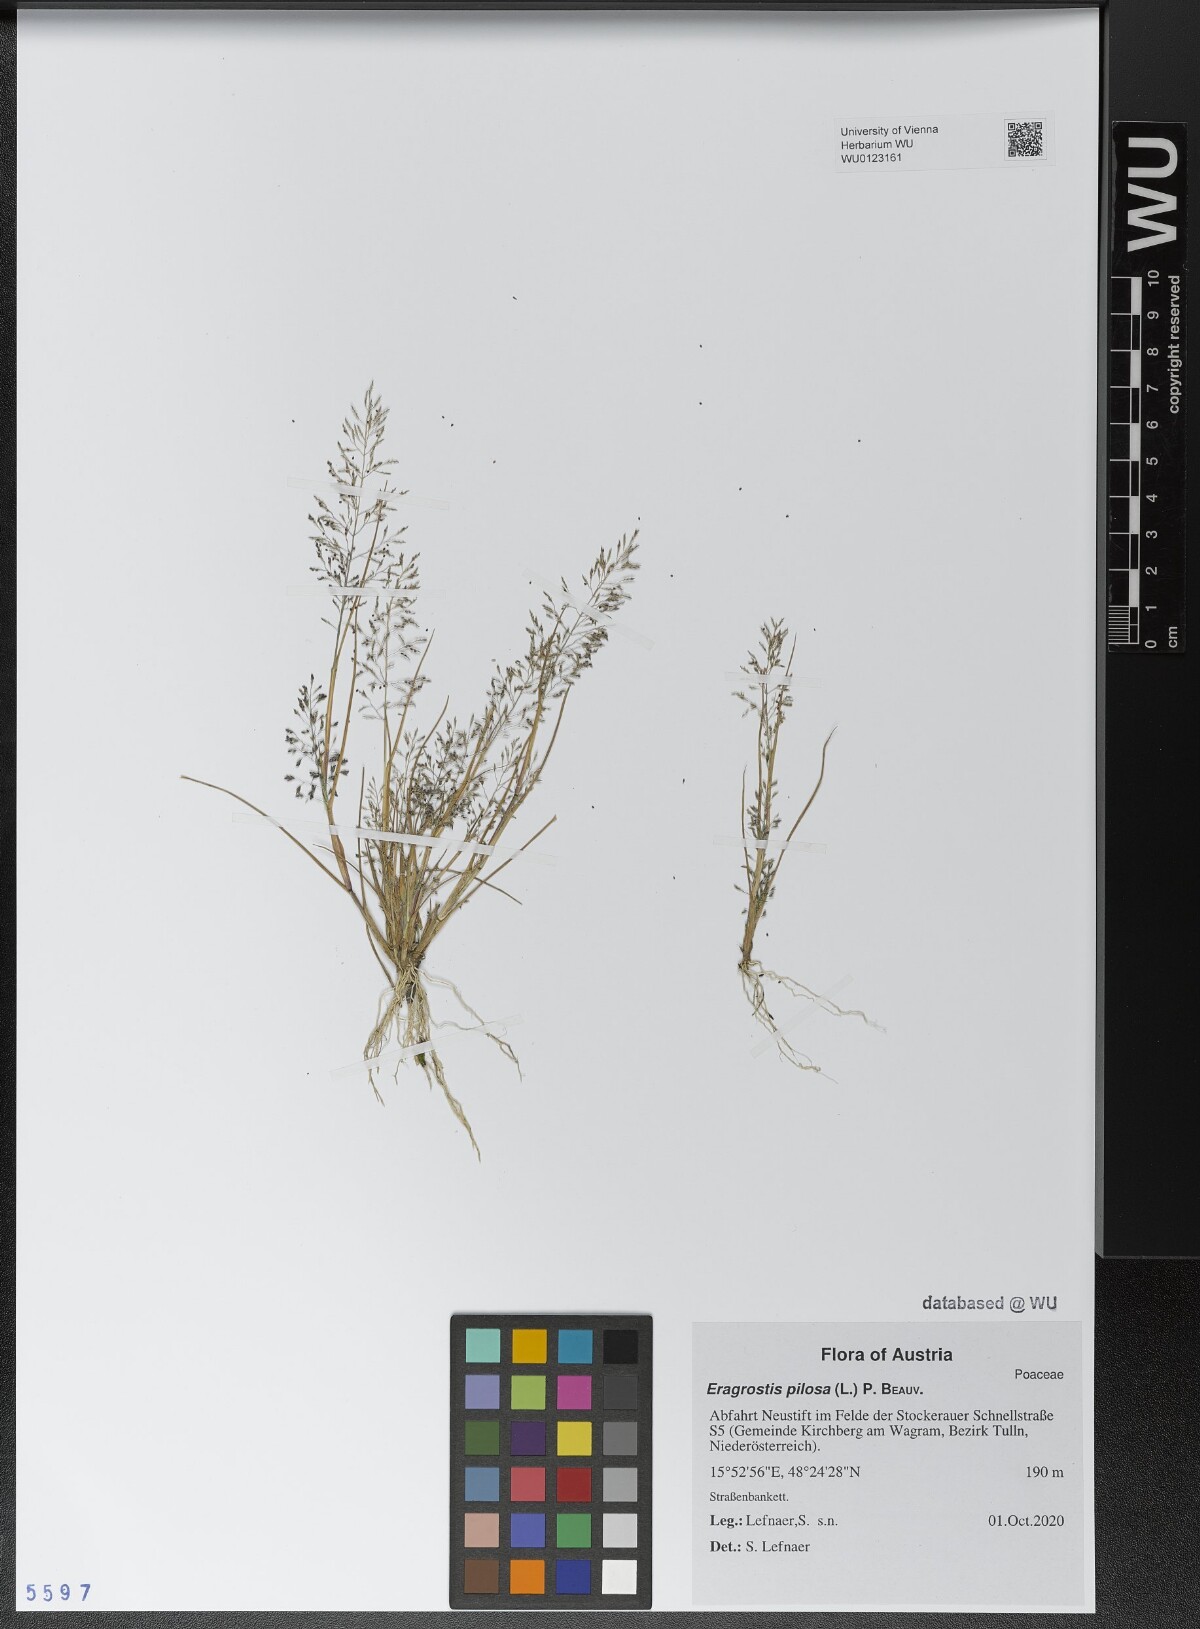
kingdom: Plantae
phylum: Tracheophyta
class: Liliopsida
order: Poales
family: Poaceae
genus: Eragrostis
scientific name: Eragrostis pilosa
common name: Indian lovegrass
